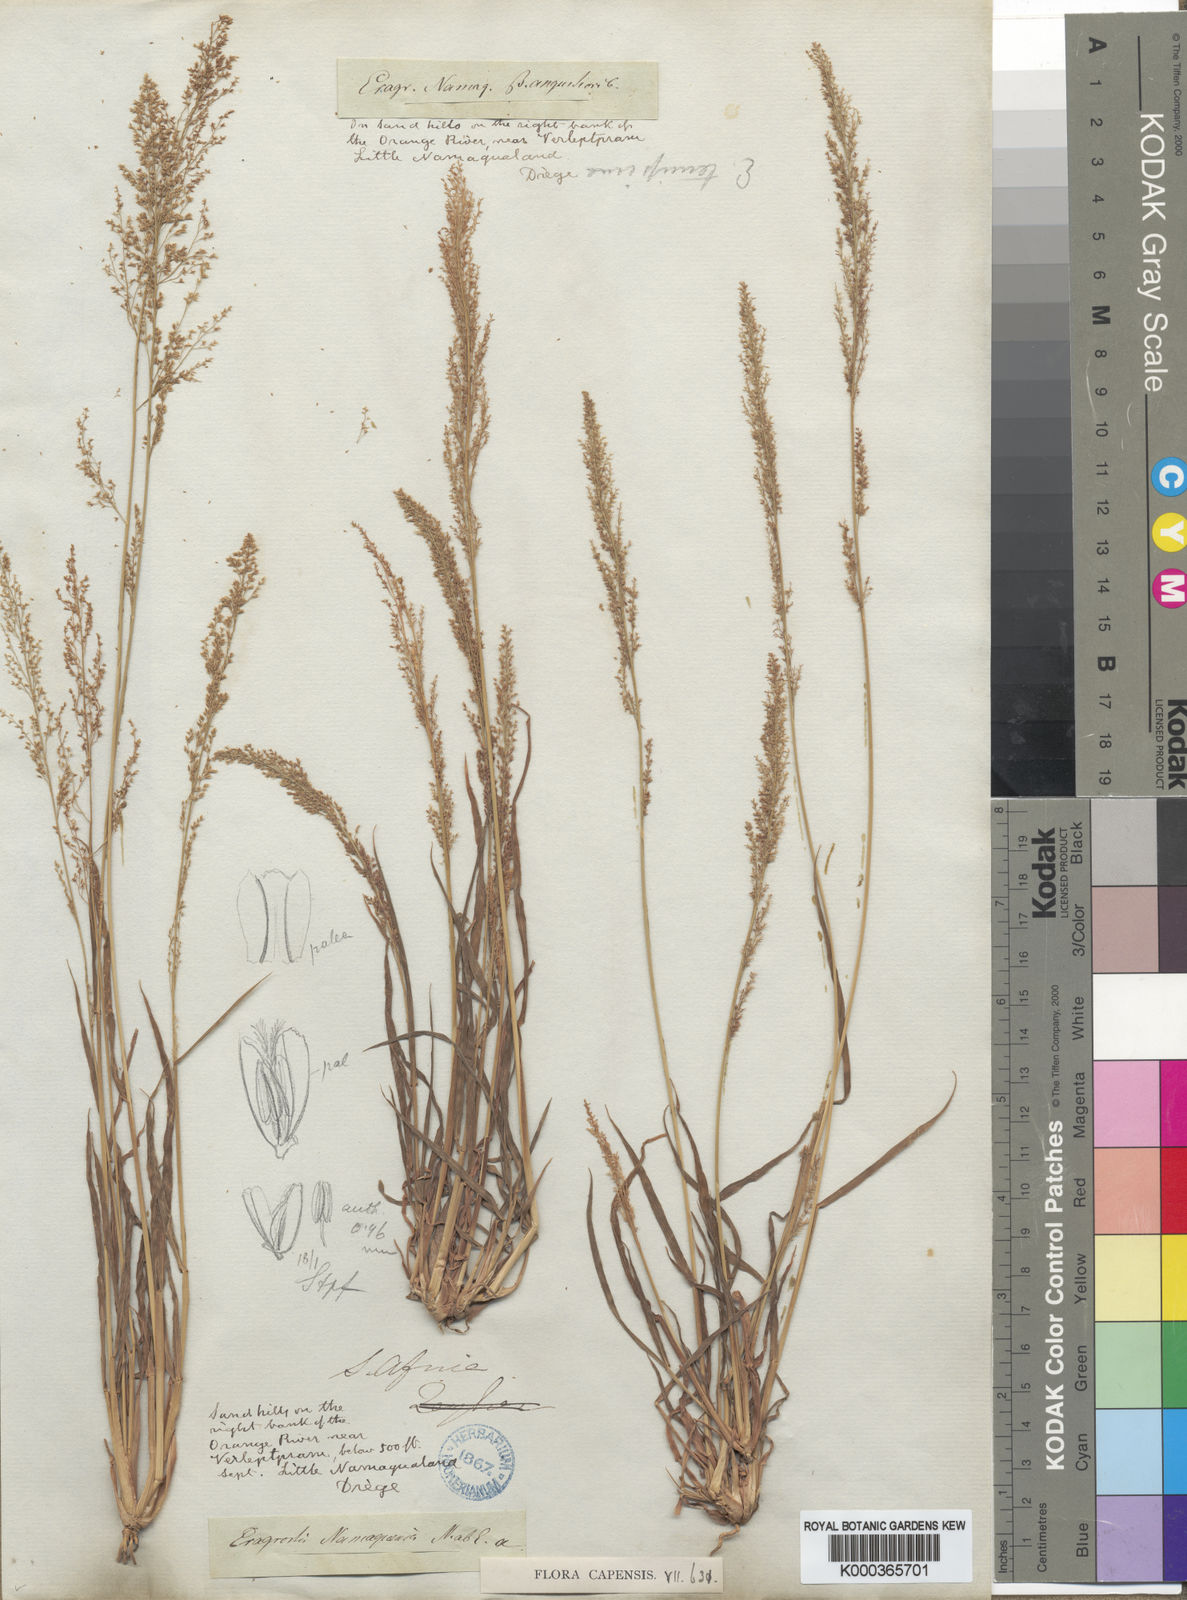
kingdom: Plantae
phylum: Tracheophyta
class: Liliopsida
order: Poales
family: Poaceae
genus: Eragrostis
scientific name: Eragrostis japonica
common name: Pond lovegrass
